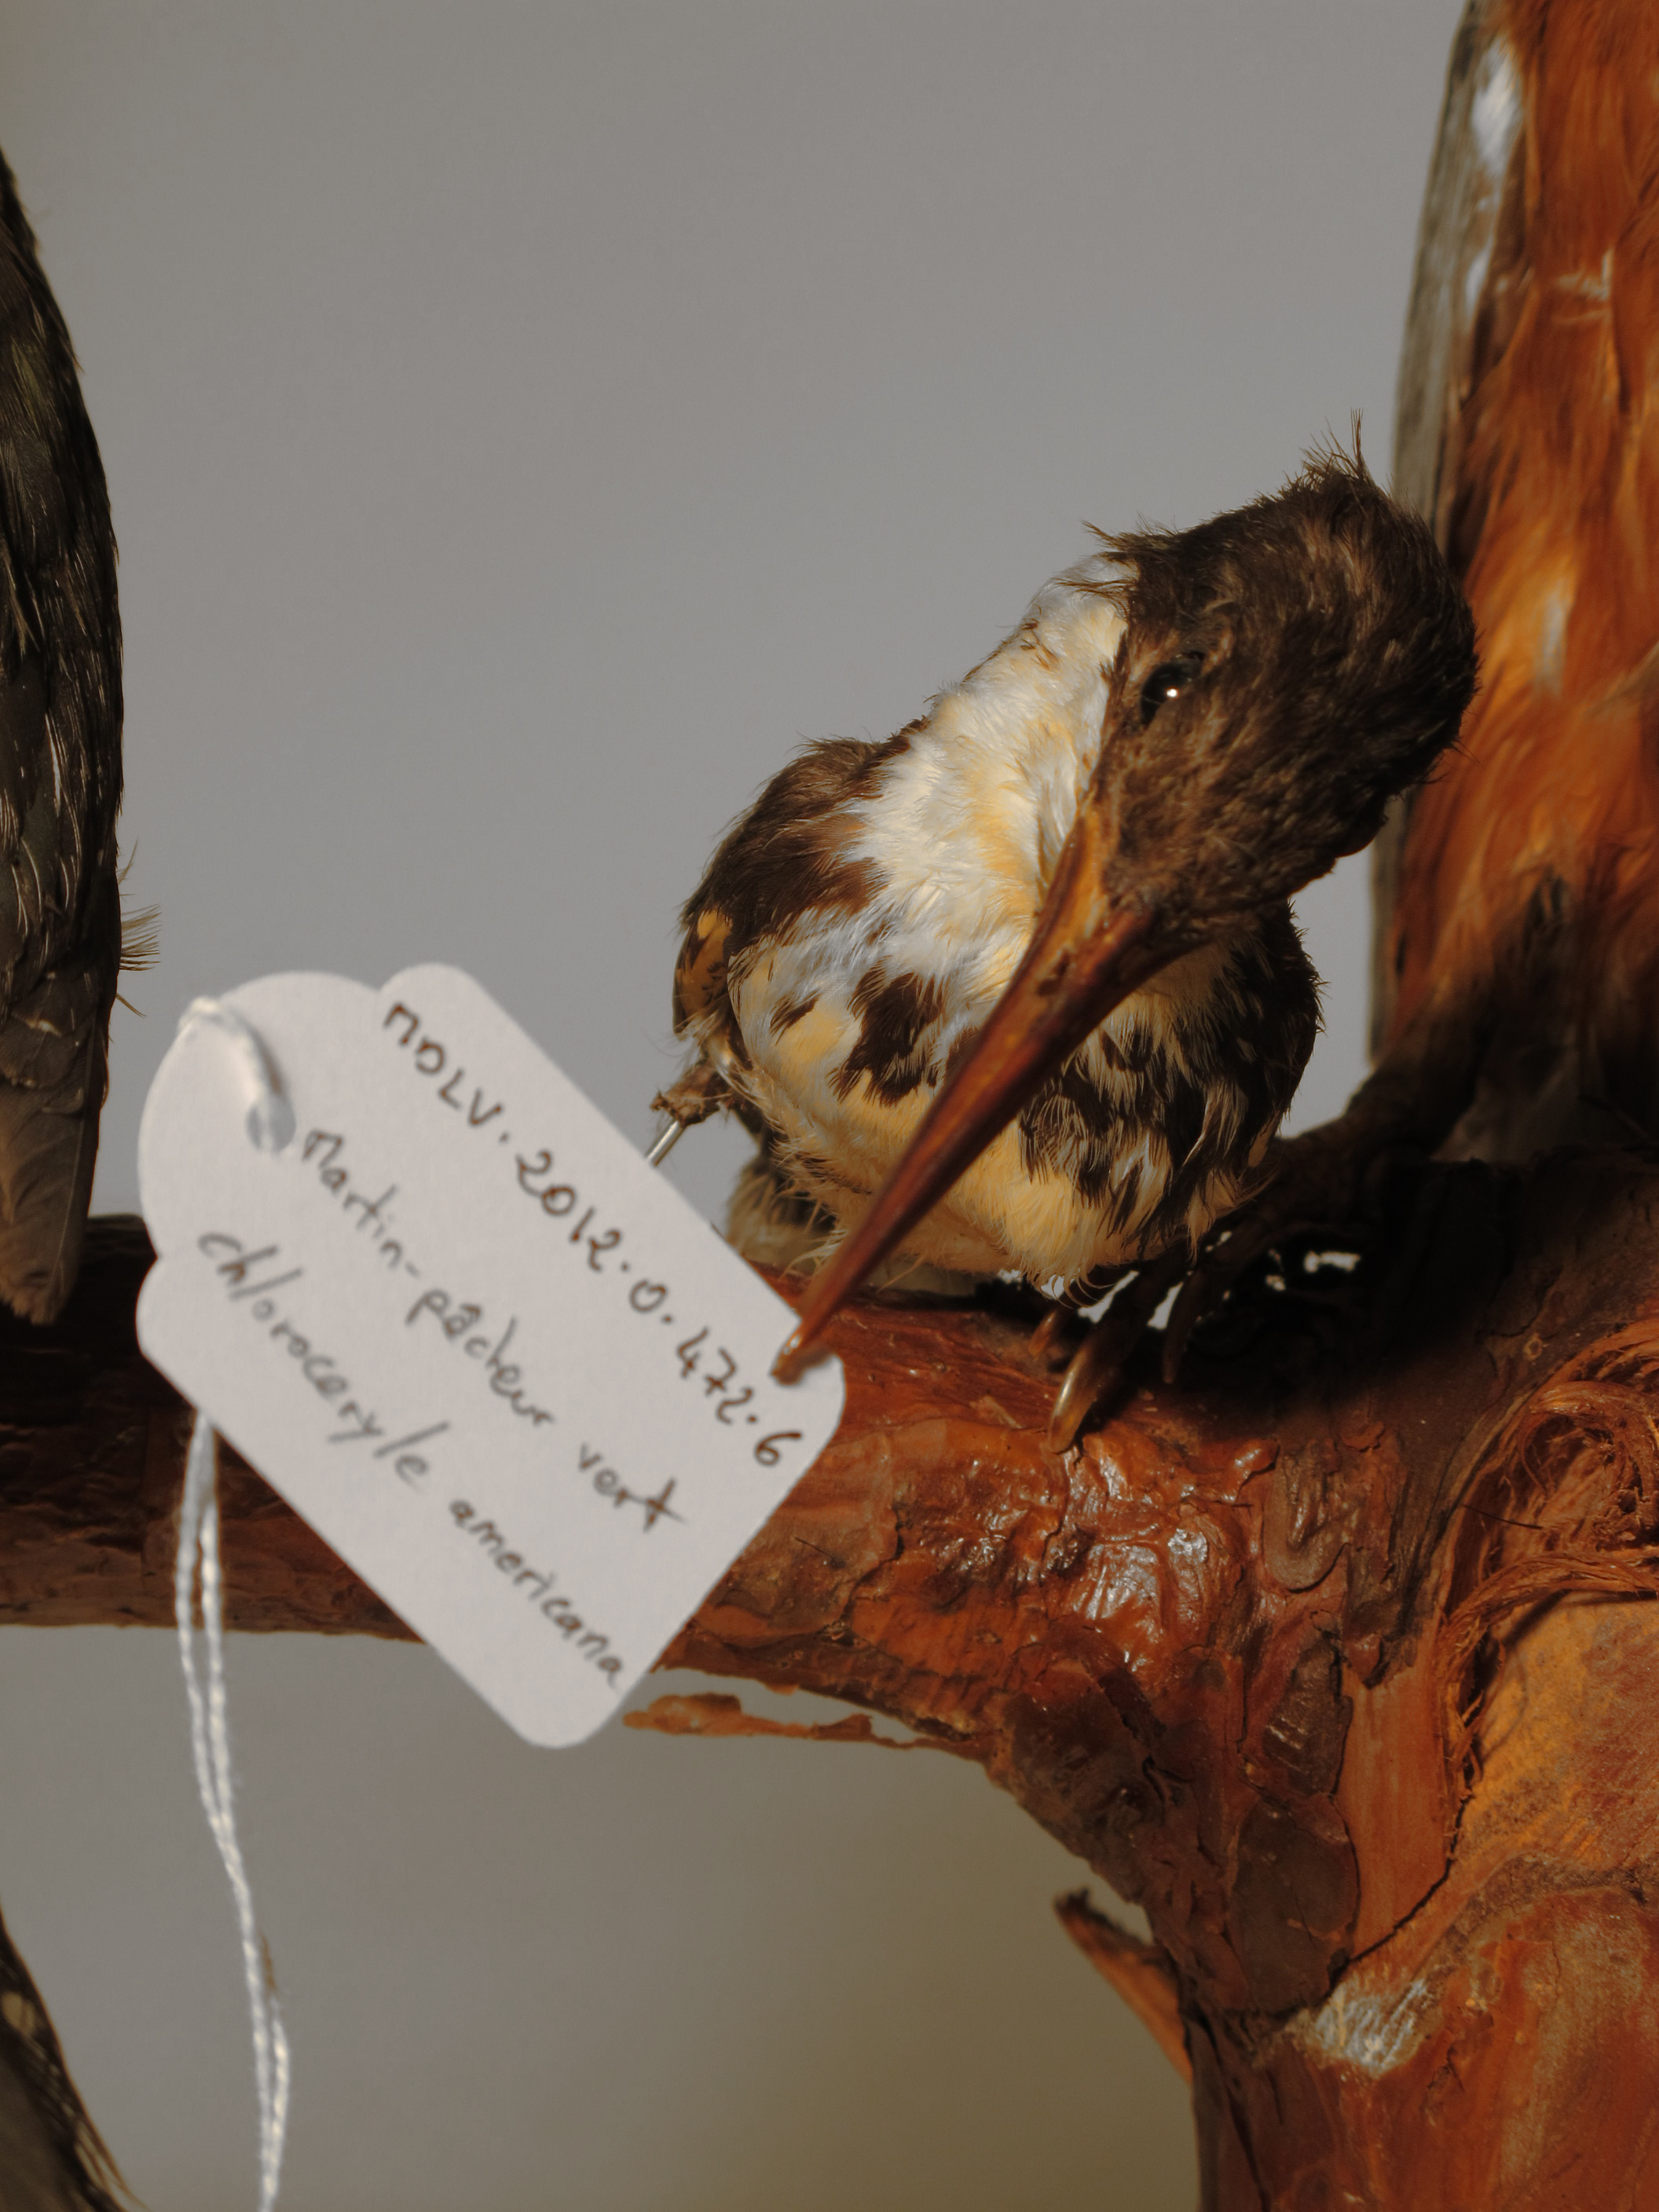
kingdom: Animalia
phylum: Chordata
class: Aves
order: Coraciiformes
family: Alcedinidae
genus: Chloroceryle
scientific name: Chloroceryle americana
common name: Green Kingfisher
